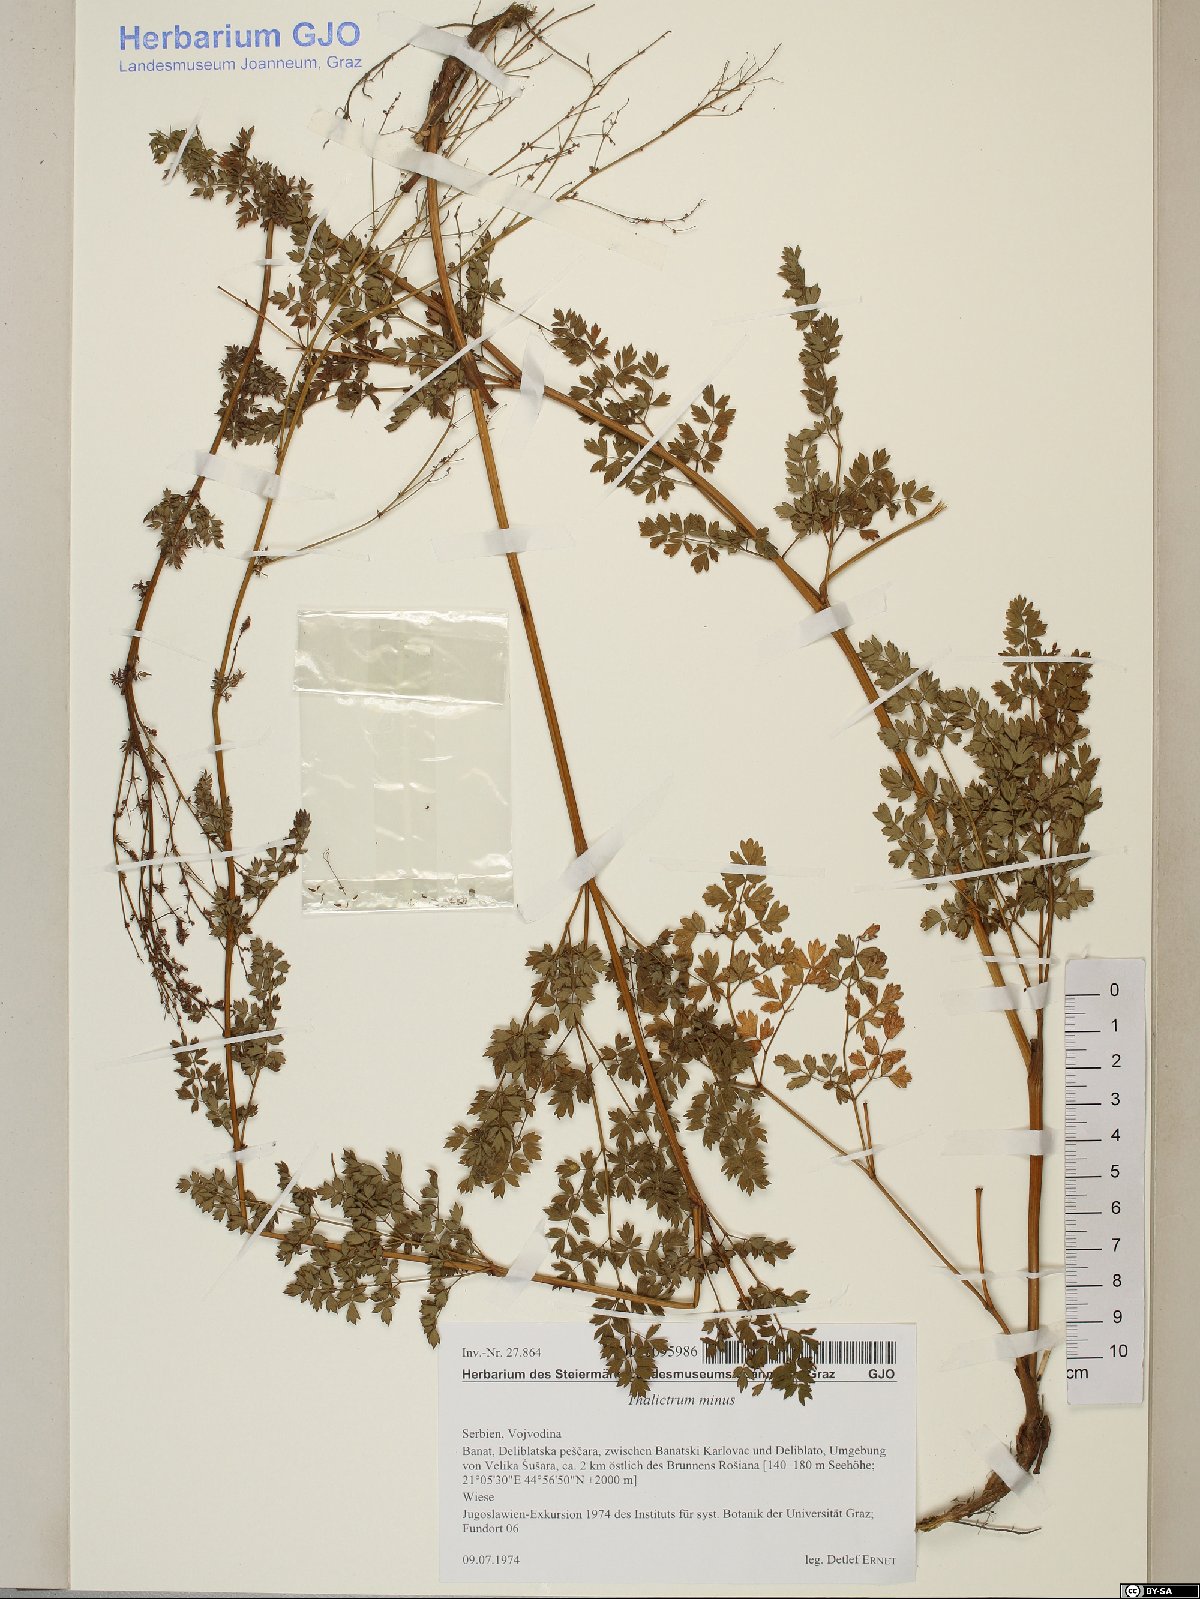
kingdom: Plantae
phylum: Tracheophyta
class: Magnoliopsida
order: Ranunculales
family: Ranunculaceae
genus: Thalictrum
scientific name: Thalictrum minus
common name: Lesser meadow-rue
